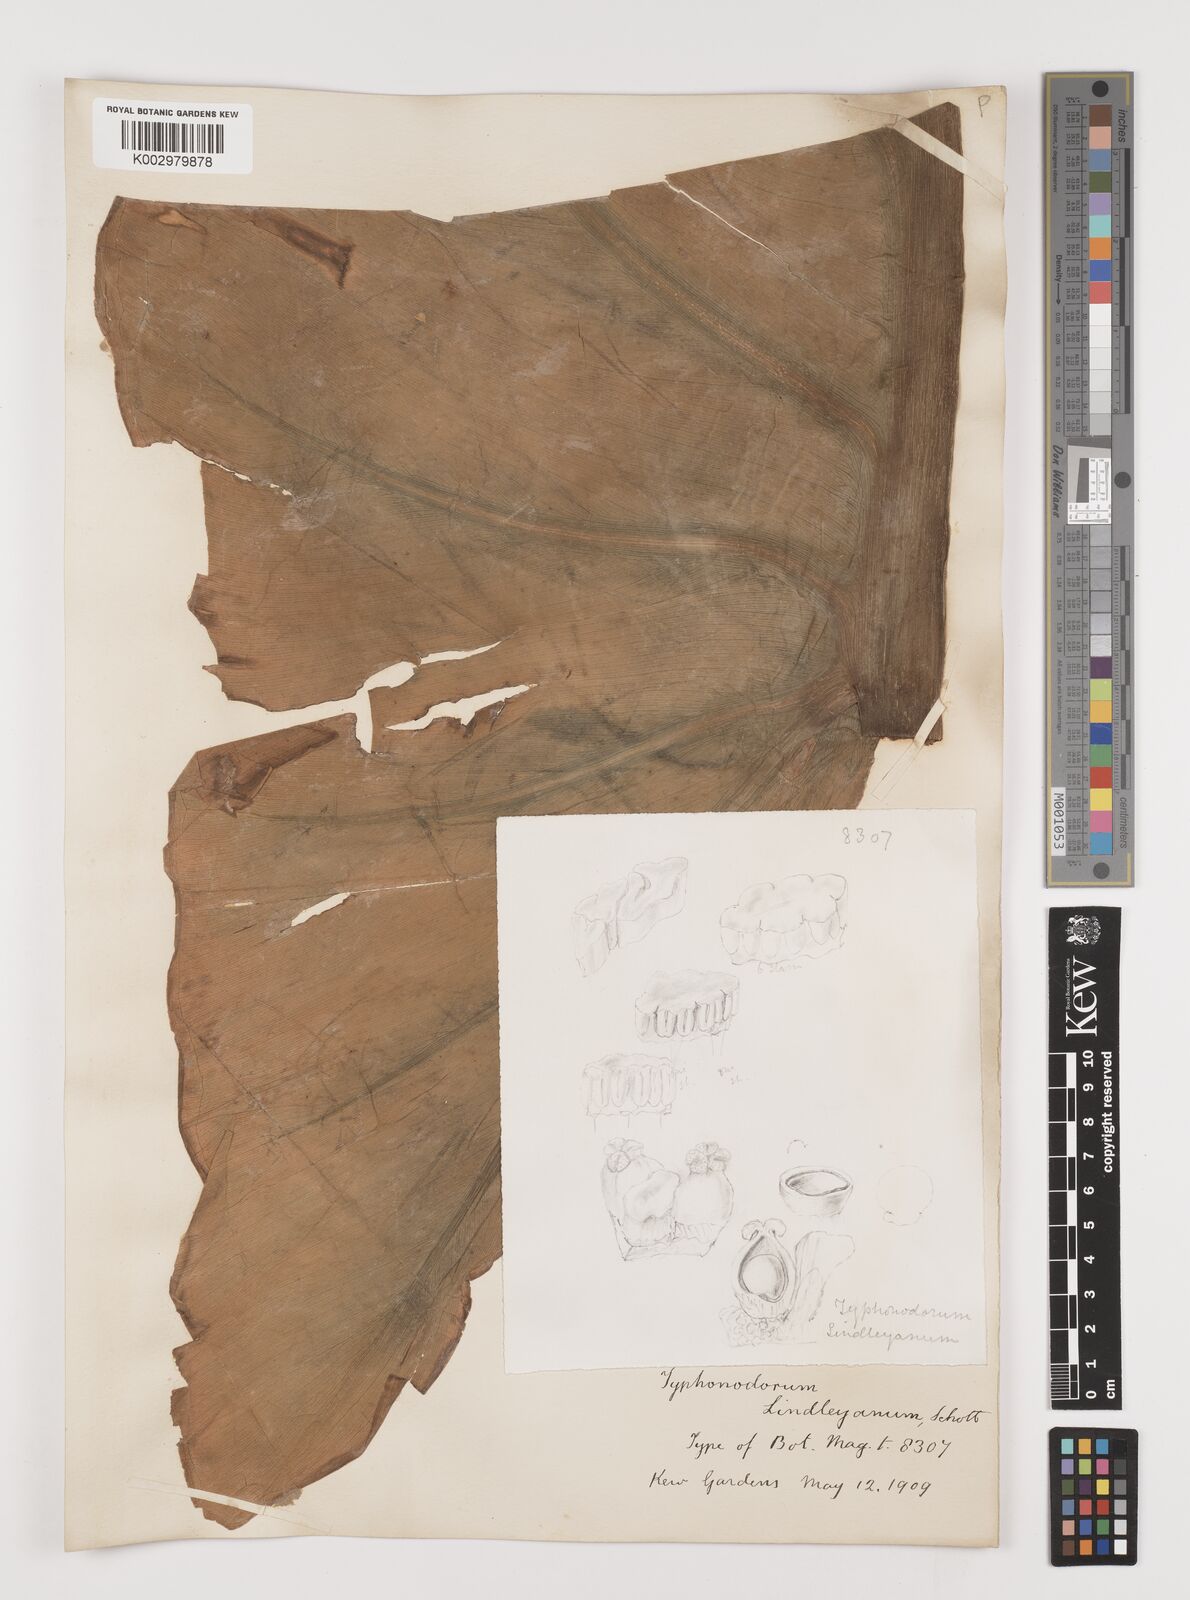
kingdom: Plantae
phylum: Tracheophyta
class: Liliopsida
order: Alismatales
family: Araceae
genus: Typhonodorum
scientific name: Typhonodorum lindleyanum
